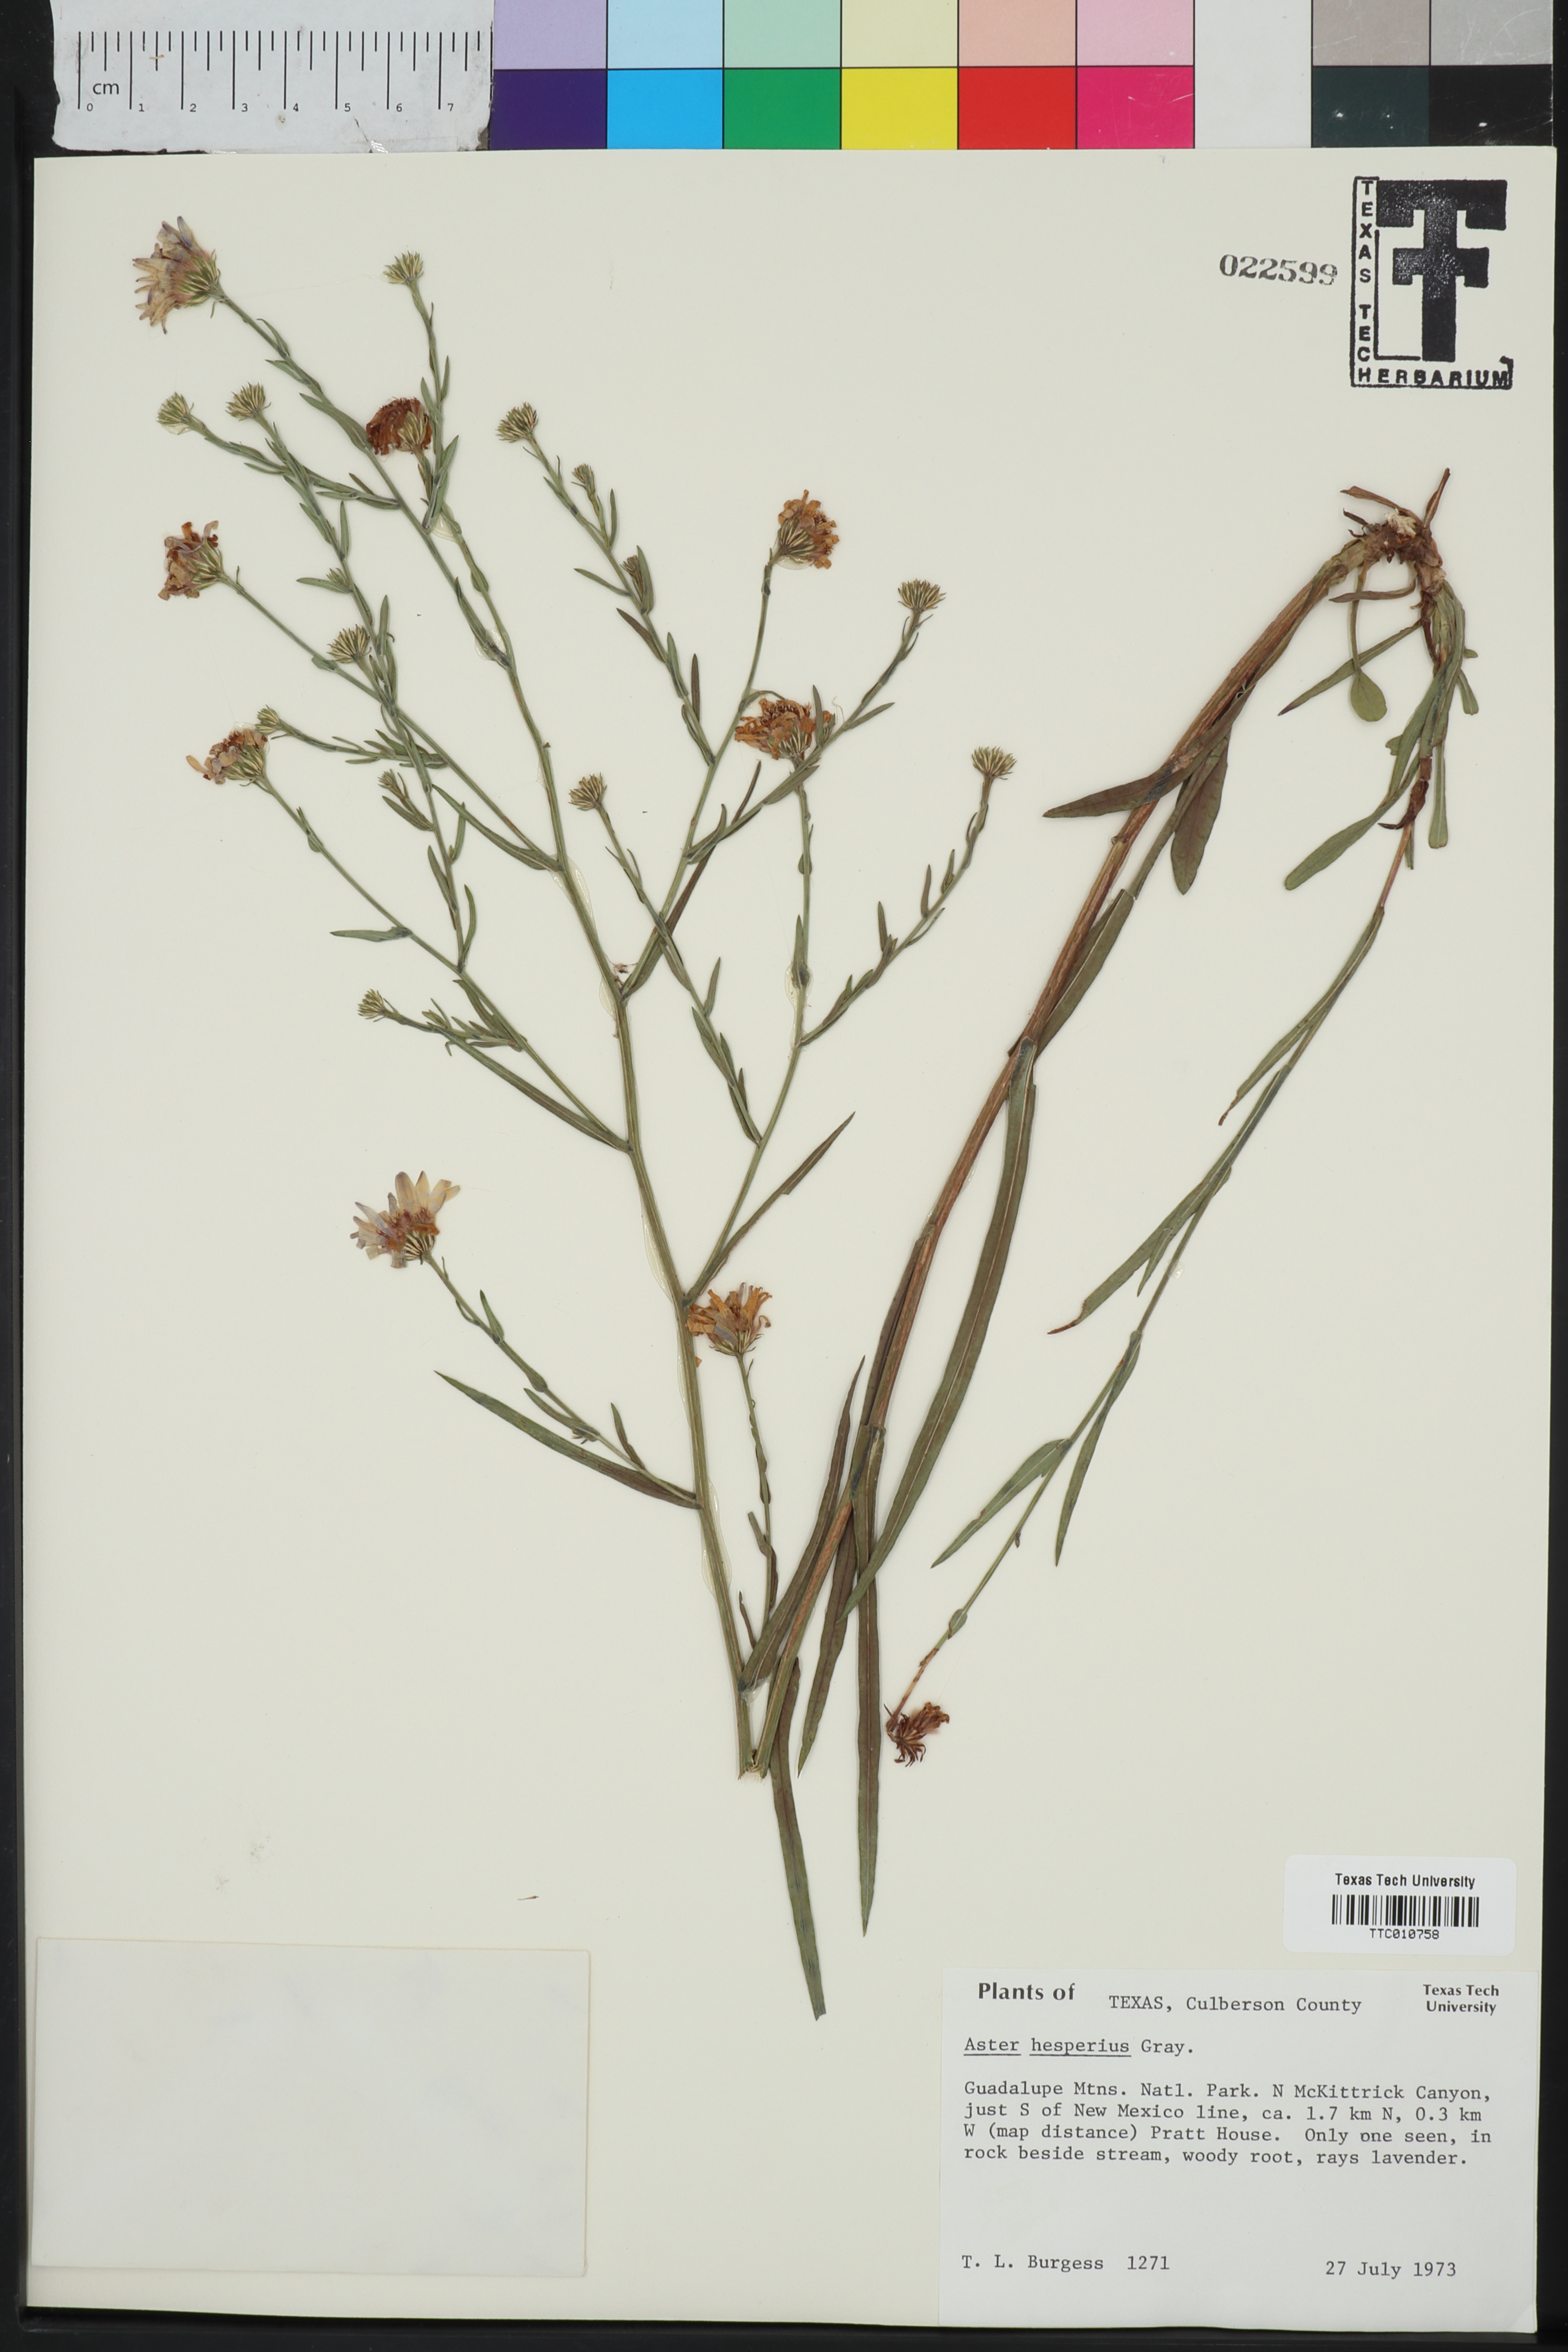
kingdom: Plantae
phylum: Tracheophyta
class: Magnoliopsida
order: Asterales
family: Asteraceae
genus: Symphyotrichum
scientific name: Symphyotrichum lanceolatum
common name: Panicled aster
